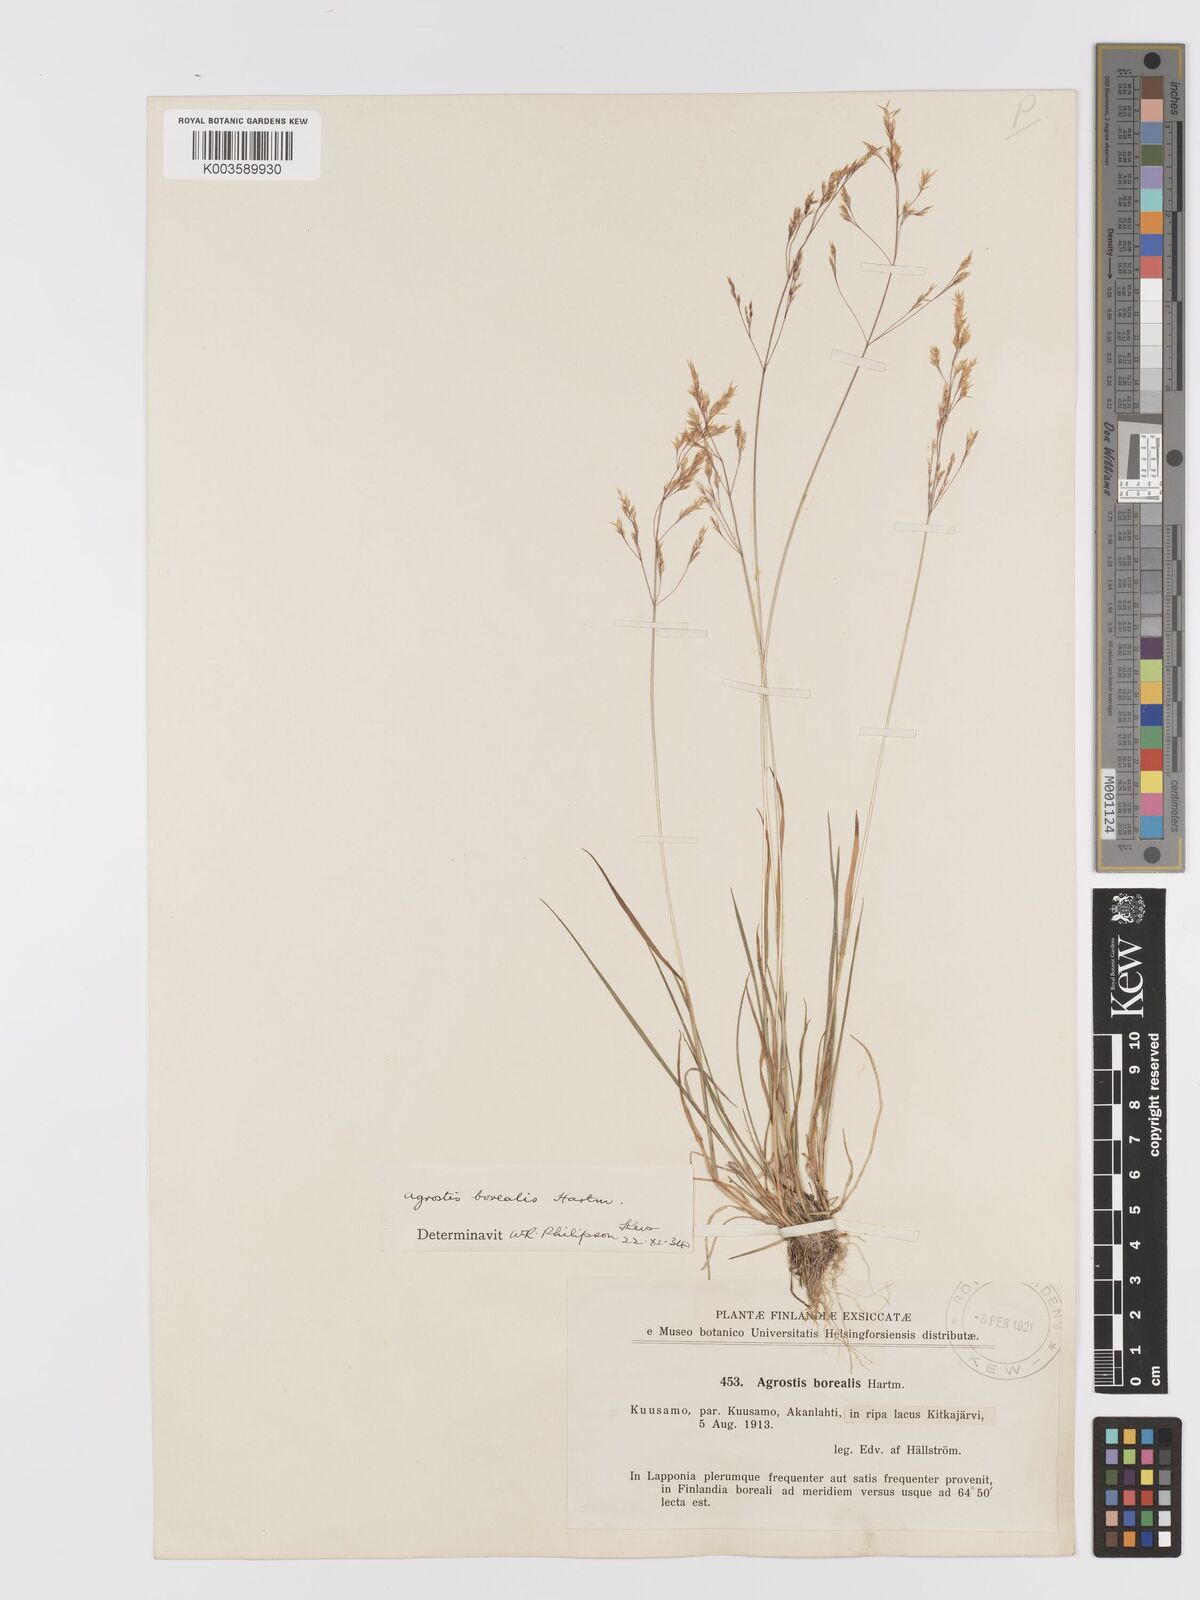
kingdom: Plantae
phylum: Tracheophyta
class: Liliopsida
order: Poales
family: Poaceae
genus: Agrostis
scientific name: Agrostis mertensii
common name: Northern bent
